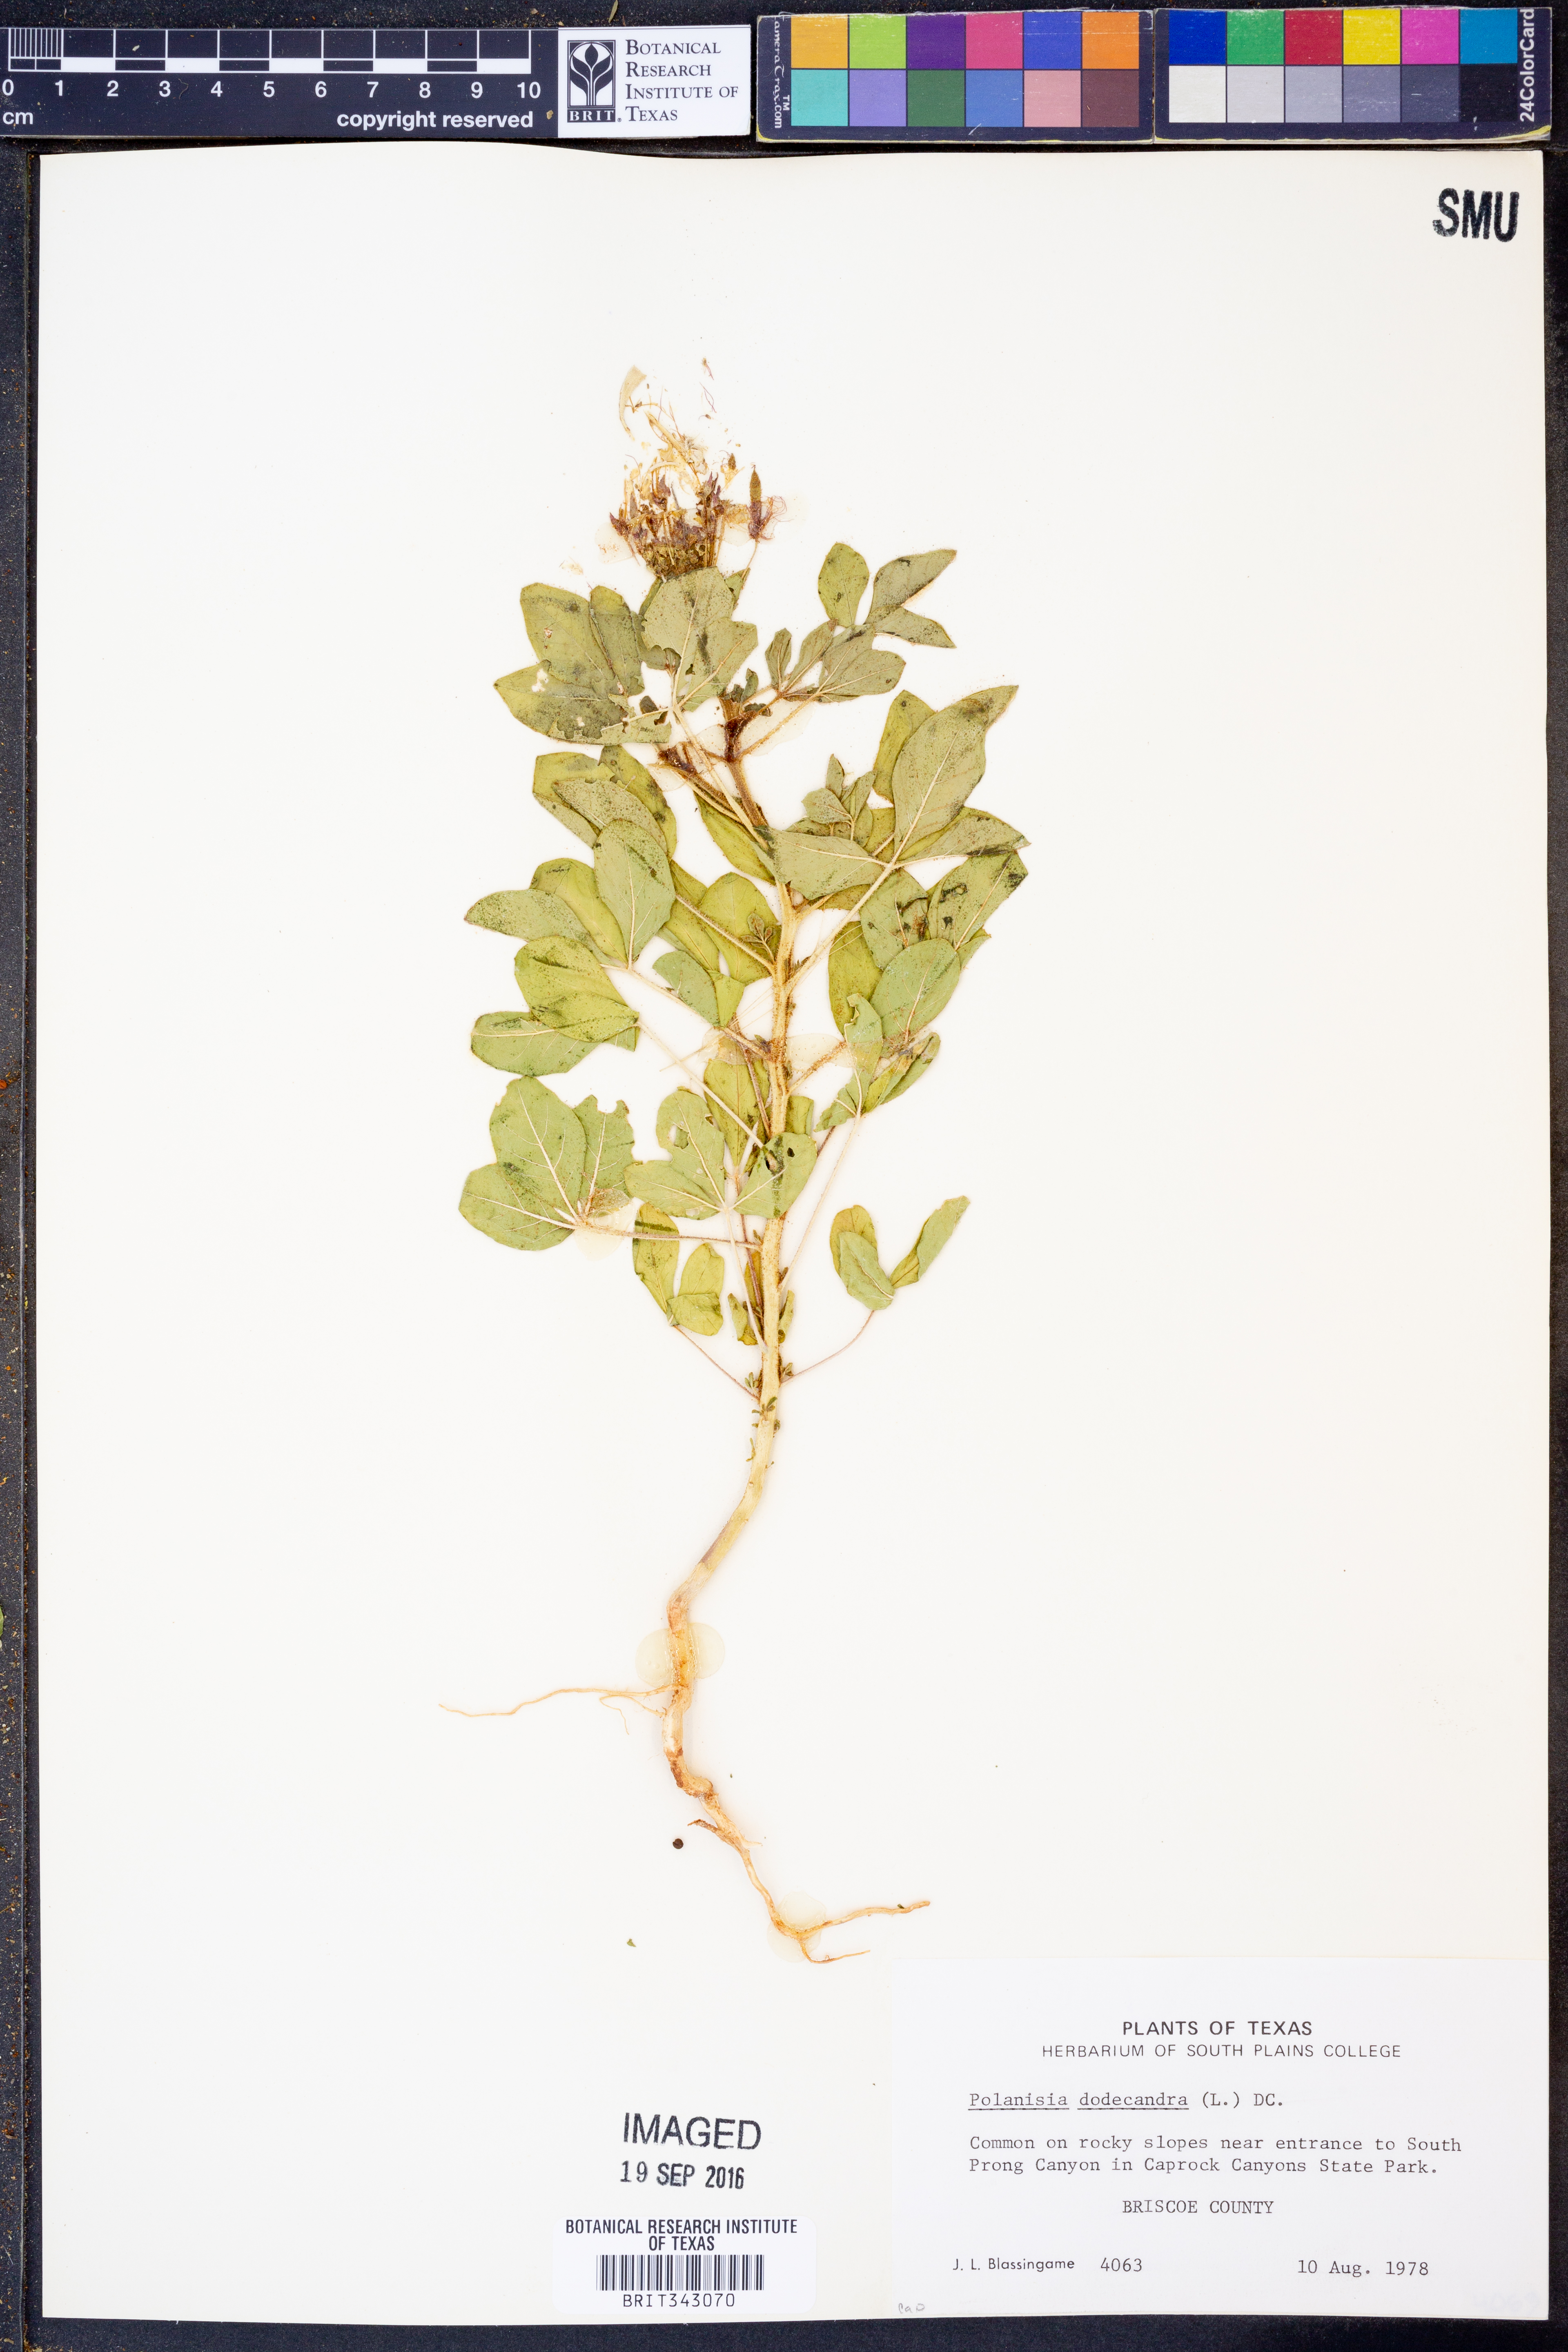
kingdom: Plantae
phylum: Tracheophyta
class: Magnoliopsida
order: Brassicales
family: Cleomaceae
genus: Polanisia
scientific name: Polanisia dodecandra
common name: Clammyweed
